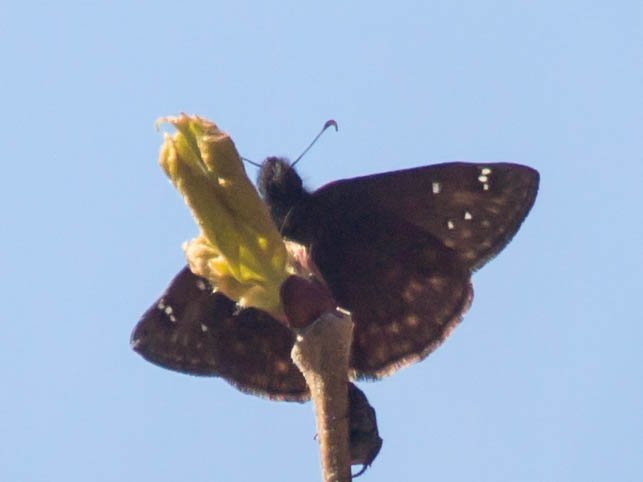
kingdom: Animalia
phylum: Arthropoda
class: Insecta
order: Lepidoptera
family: Hesperiidae
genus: Gesta
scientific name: Gesta
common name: Horace's Duskywing
